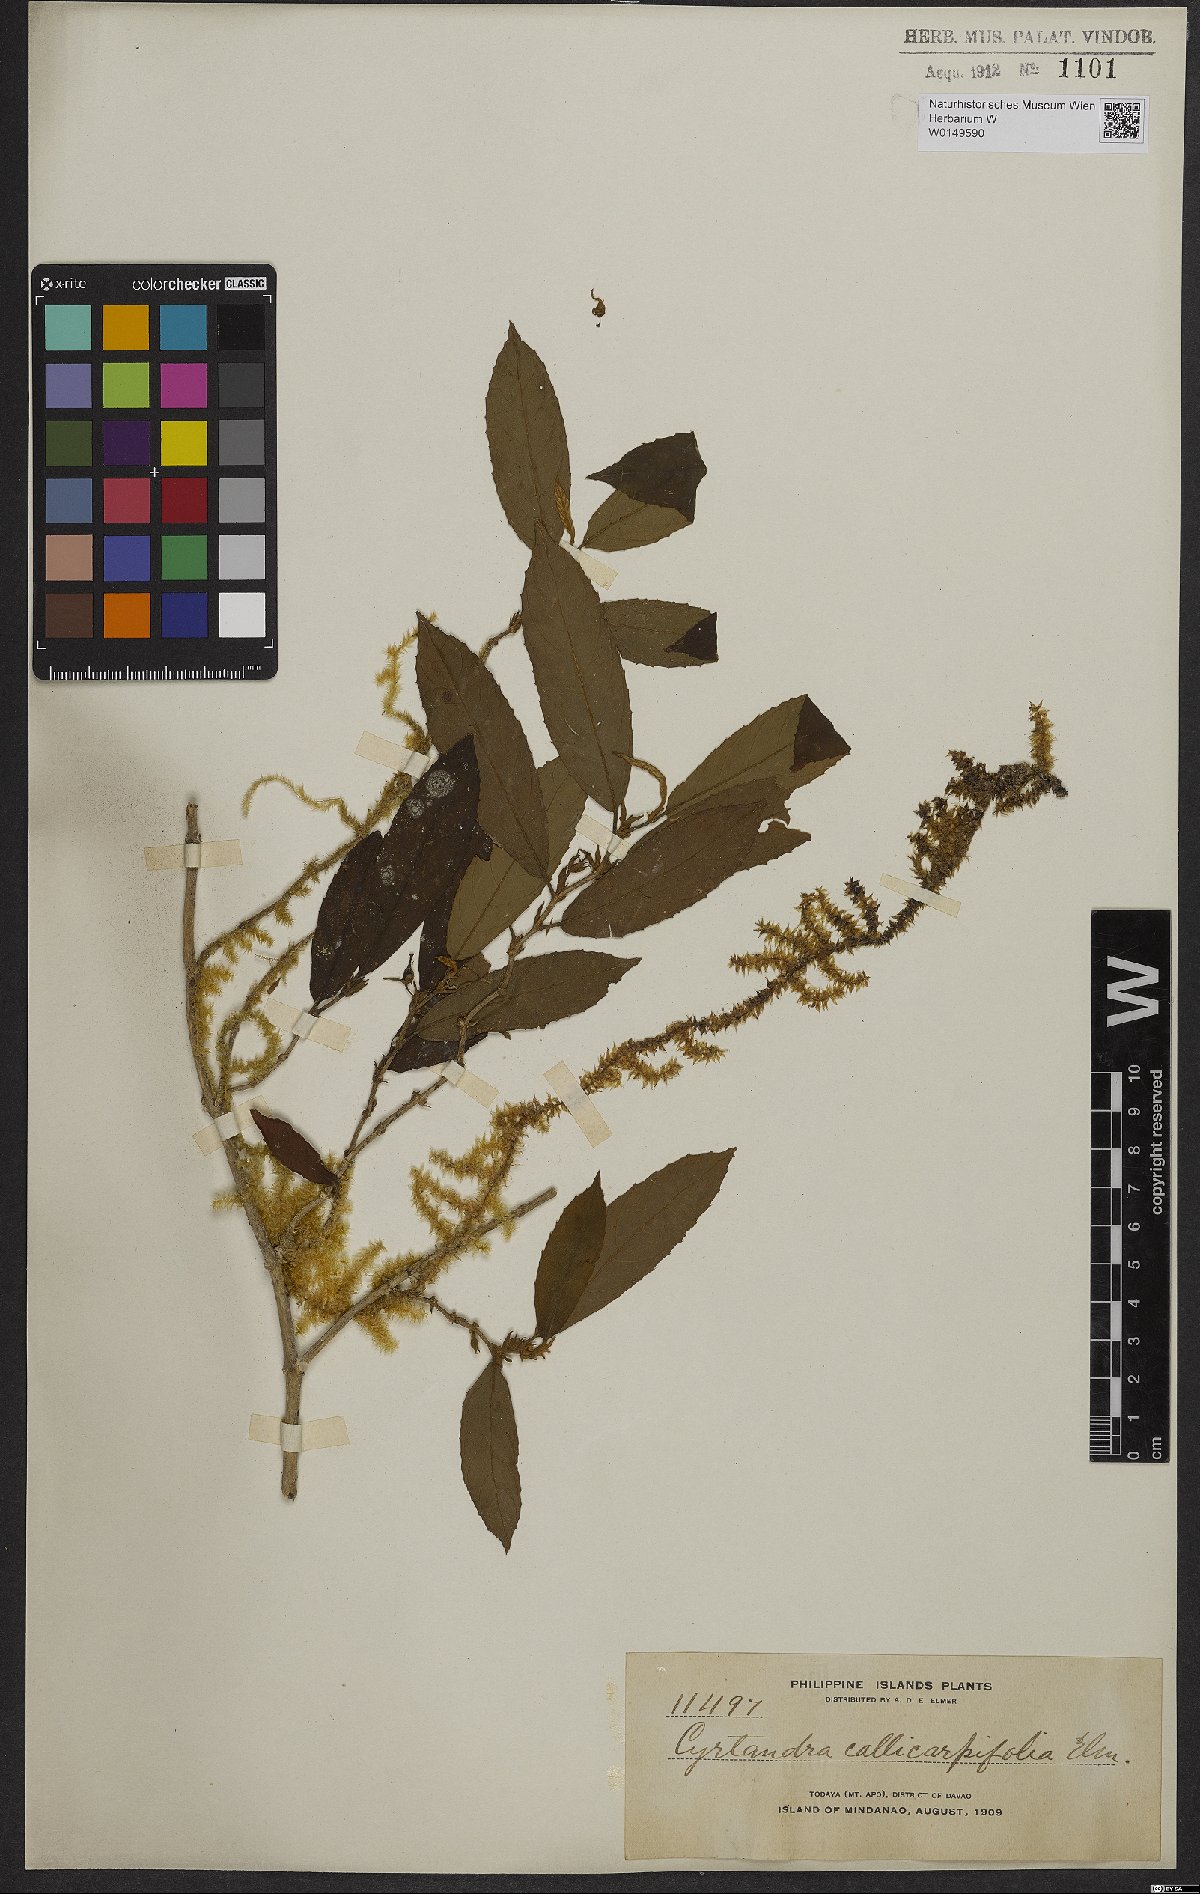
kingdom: Plantae
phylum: Tracheophyta
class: Magnoliopsida
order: Lamiales
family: Gesneriaceae
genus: Cyrtandra
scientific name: Cyrtandra callicarpifolia
